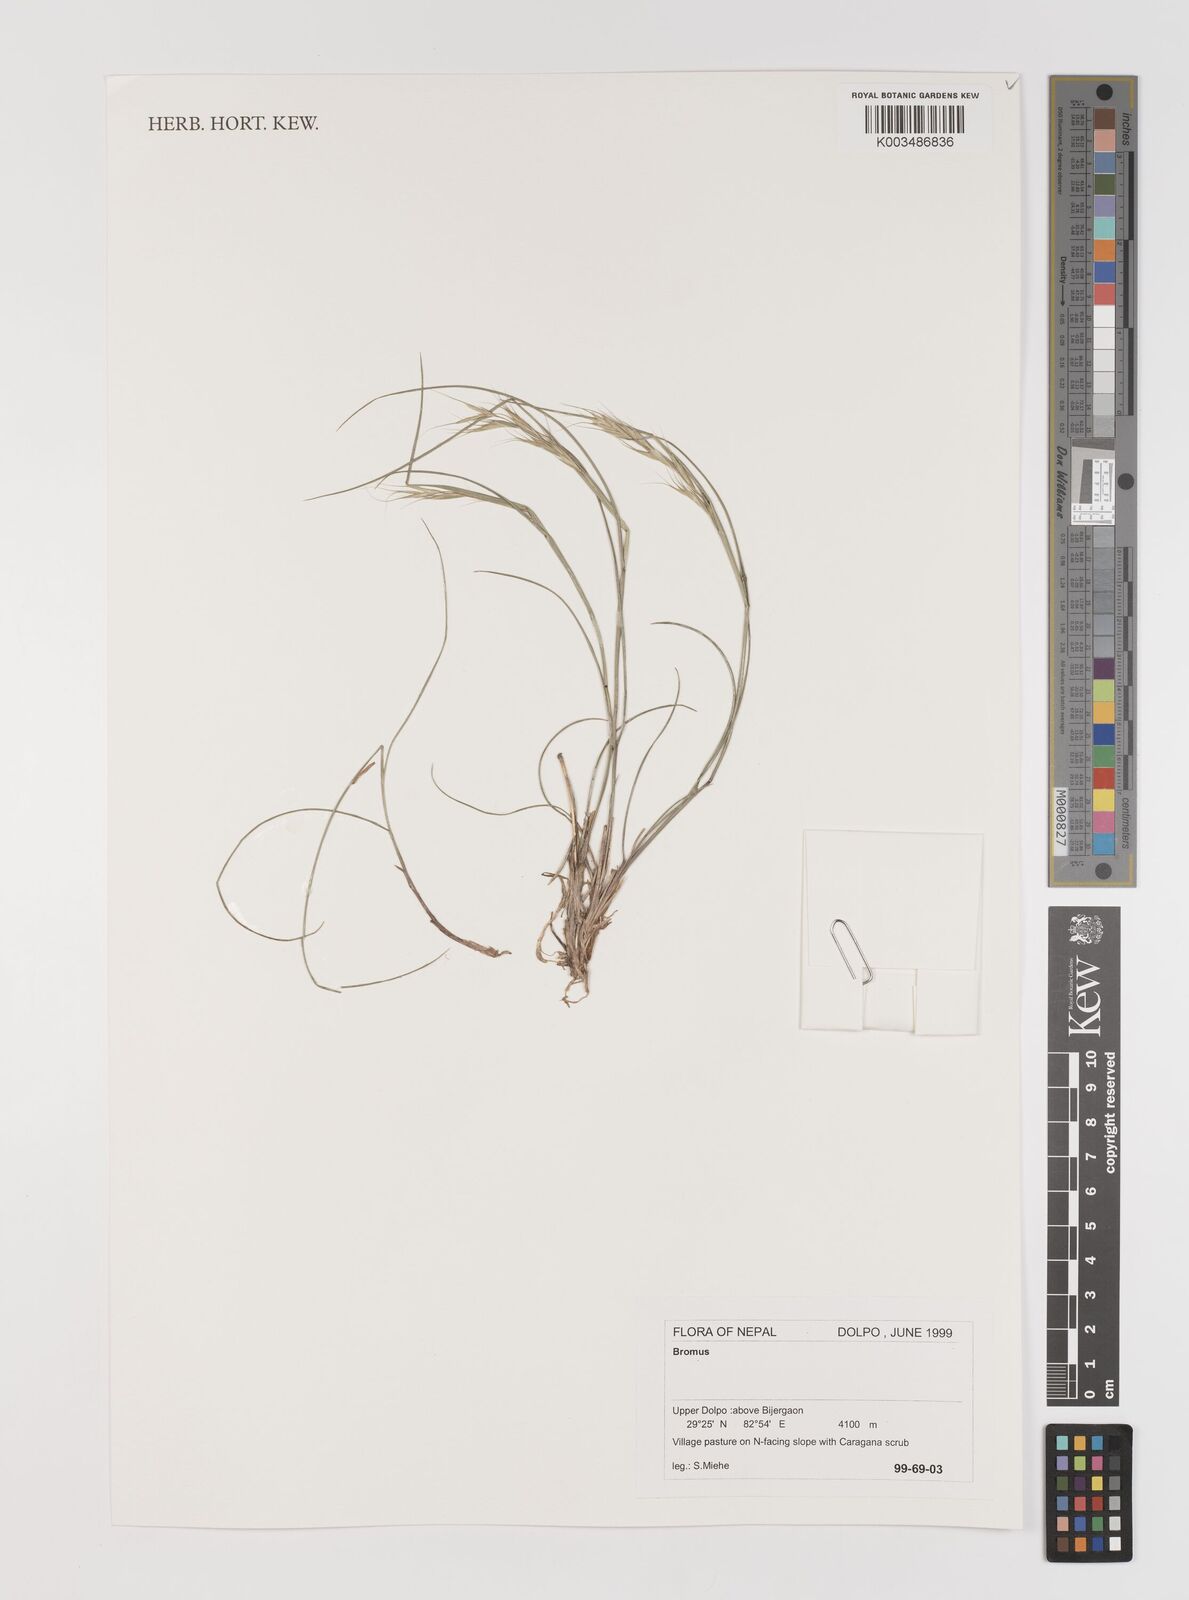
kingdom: Plantae
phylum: Tracheophyta
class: Liliopsida
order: Poales
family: Poaceae
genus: Bromus
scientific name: Bromus
